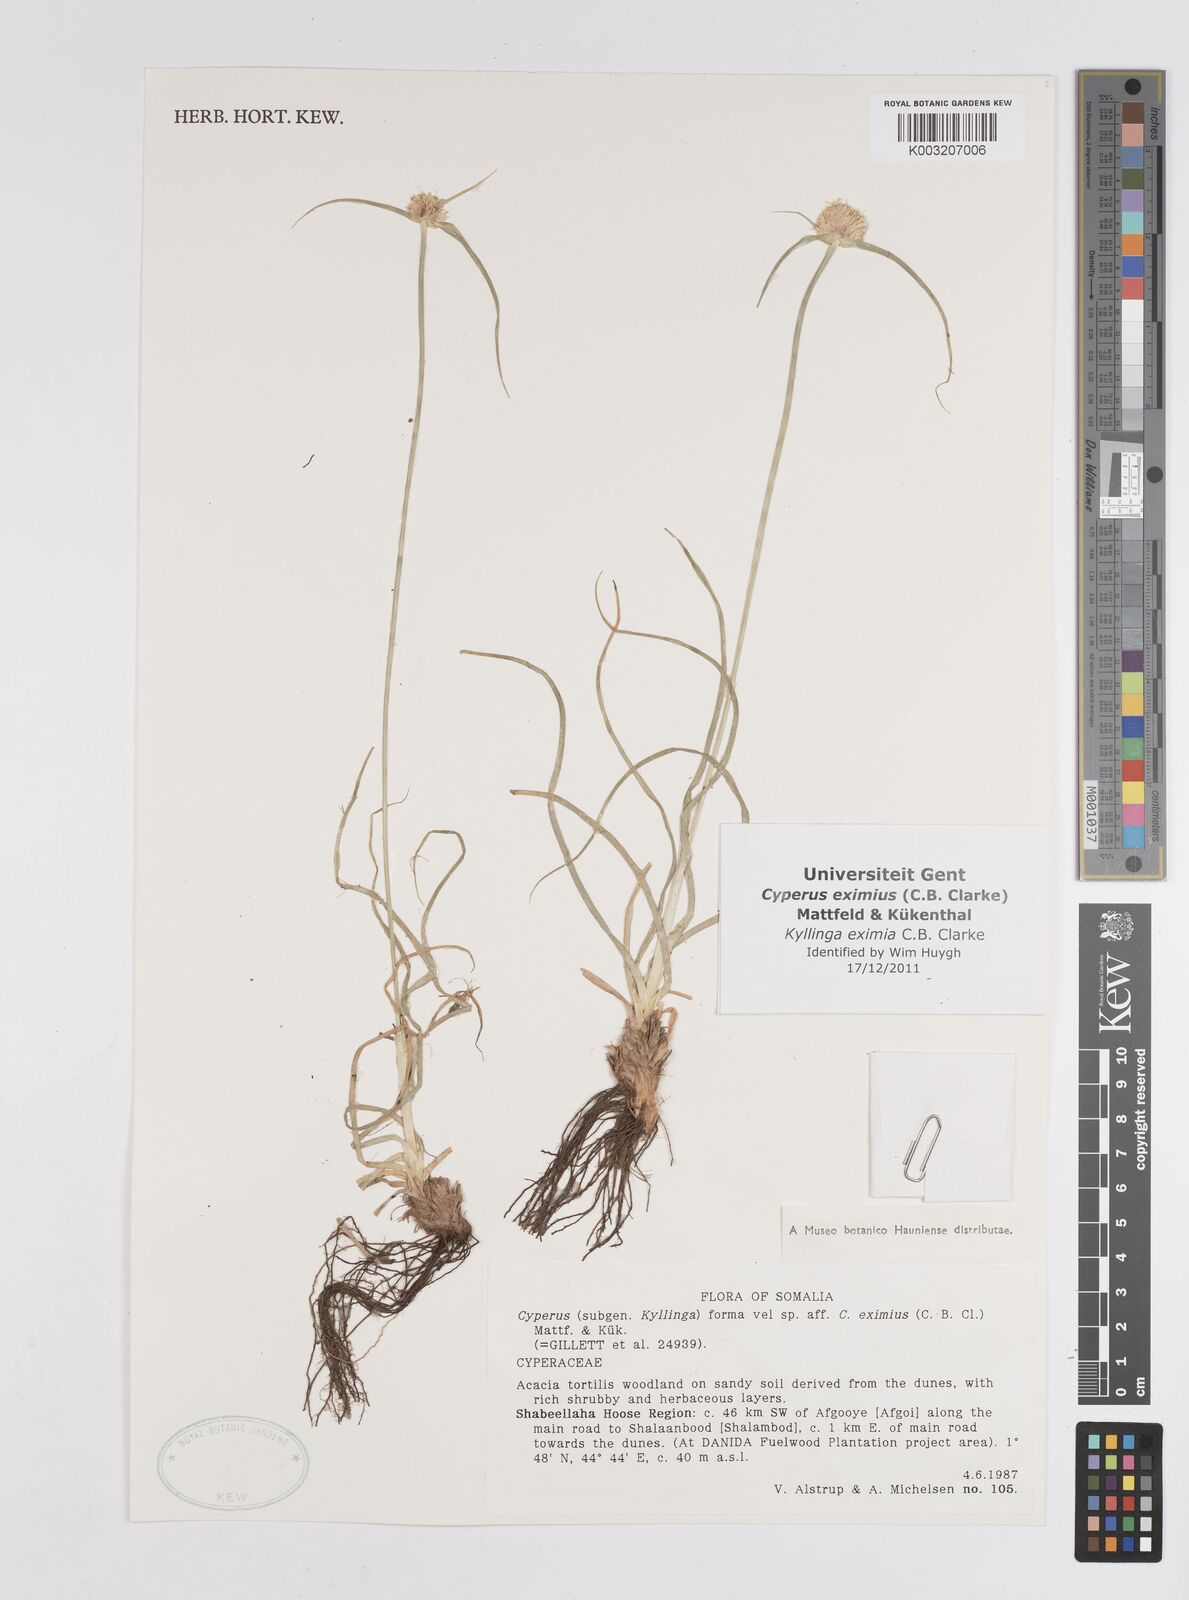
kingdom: Plantae
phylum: Tracheophyta
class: Liliopsida
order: Poales
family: Cyperaceae
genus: Cyperus
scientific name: Cyperus eximius
